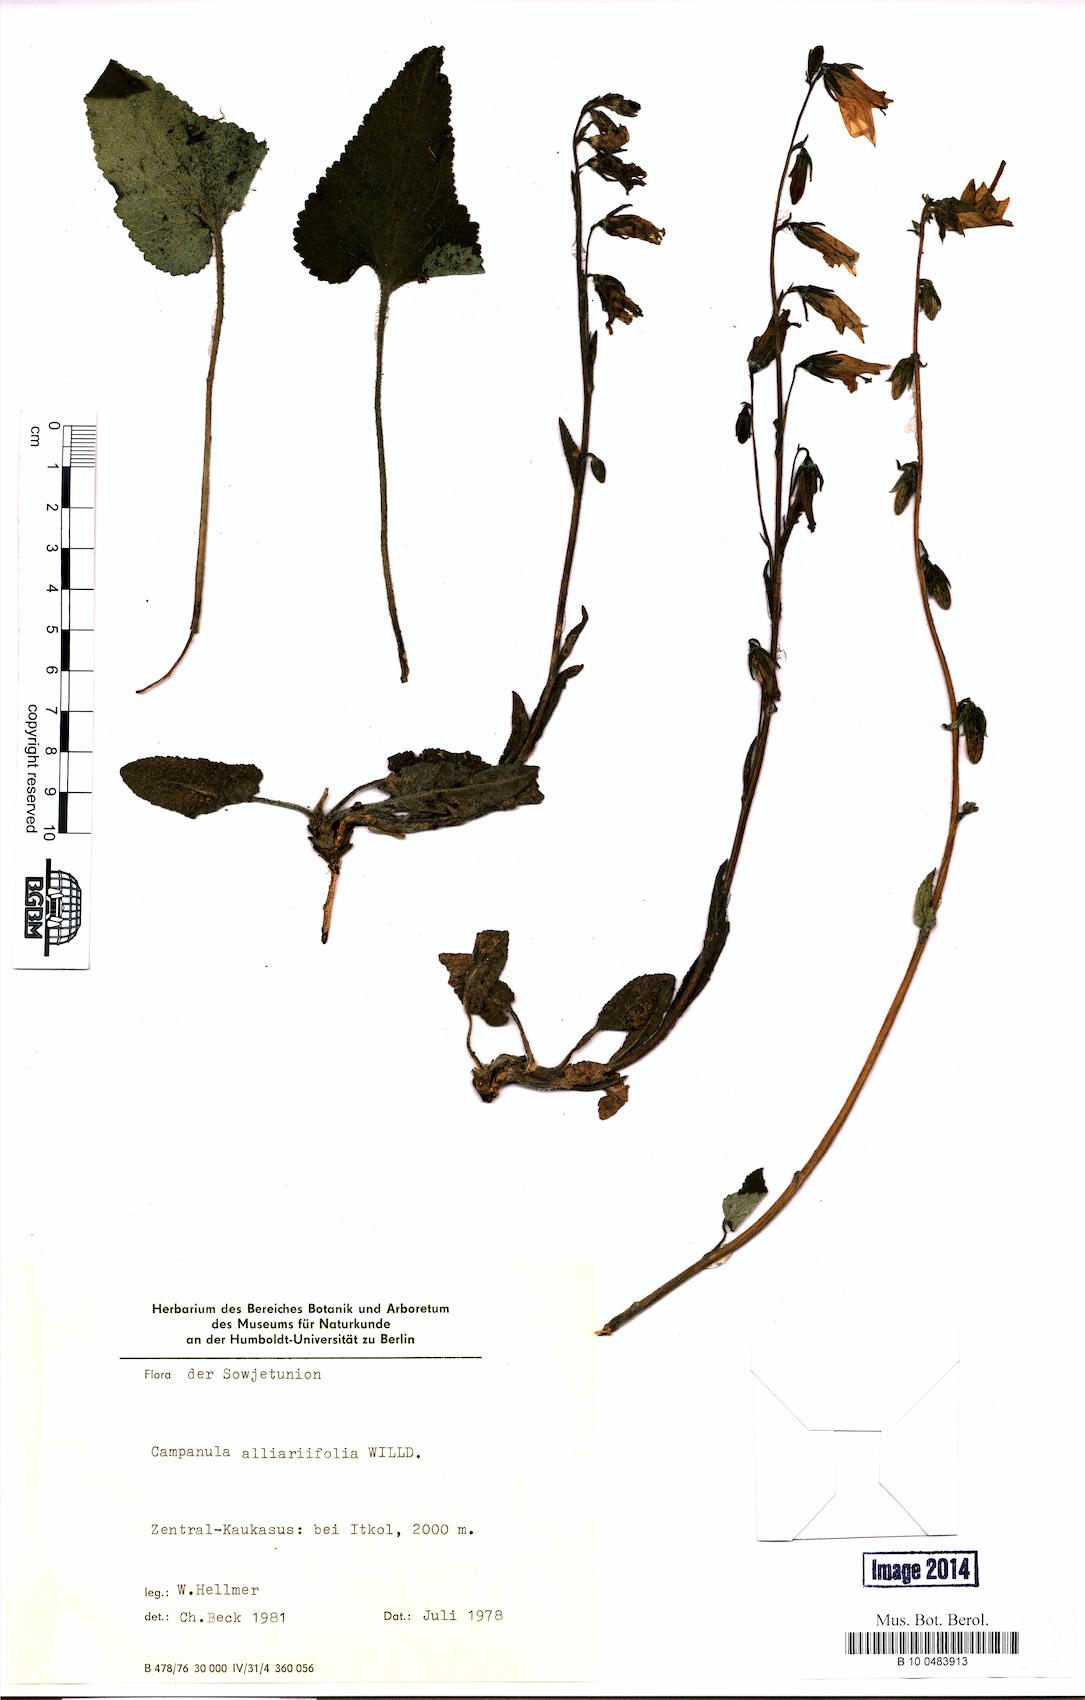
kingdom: Plantae
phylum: Tracheophyta
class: Magnoliopsida
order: Asterales
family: Campanulaceae
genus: Campanula
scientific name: Campanula alliariifolia
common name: Cornish bellflower
